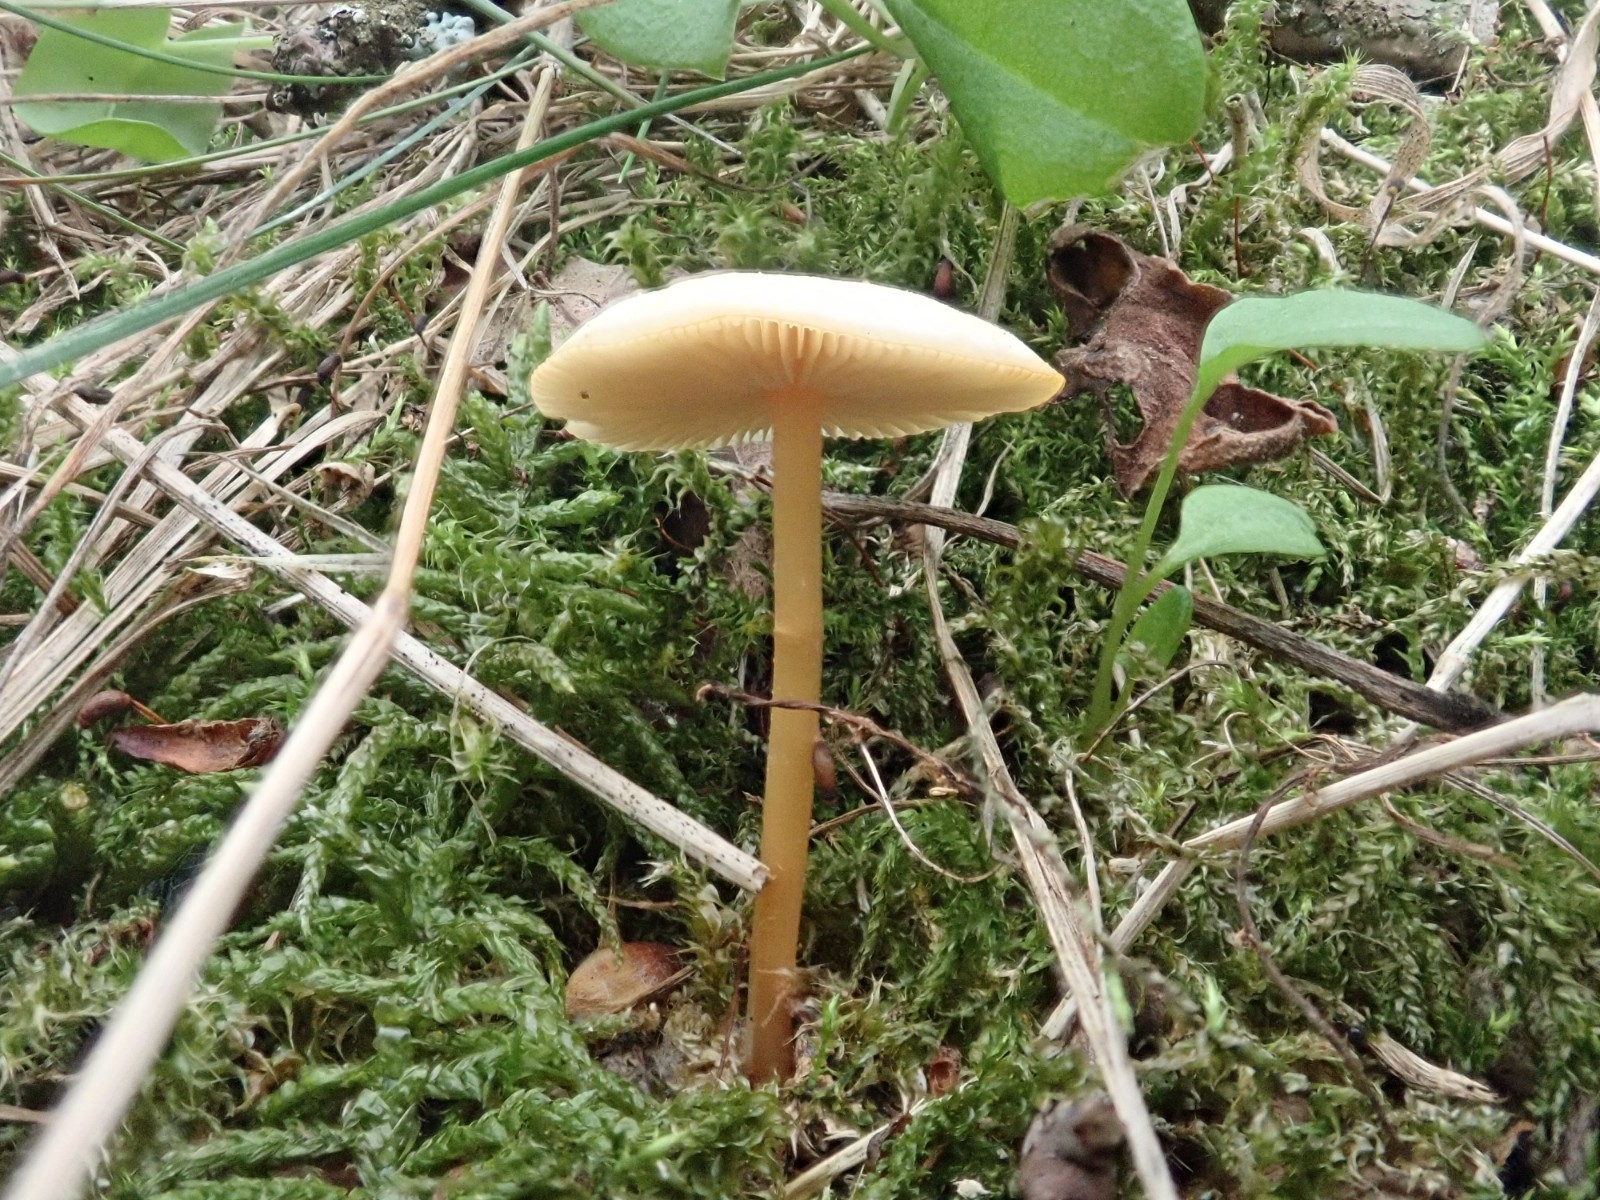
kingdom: Fungi
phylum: Basidiomycota
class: Agaricomycetes
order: Agaricales
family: Omphalotaceae
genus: Gymnopus
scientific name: Gymnopus
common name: fladhat
